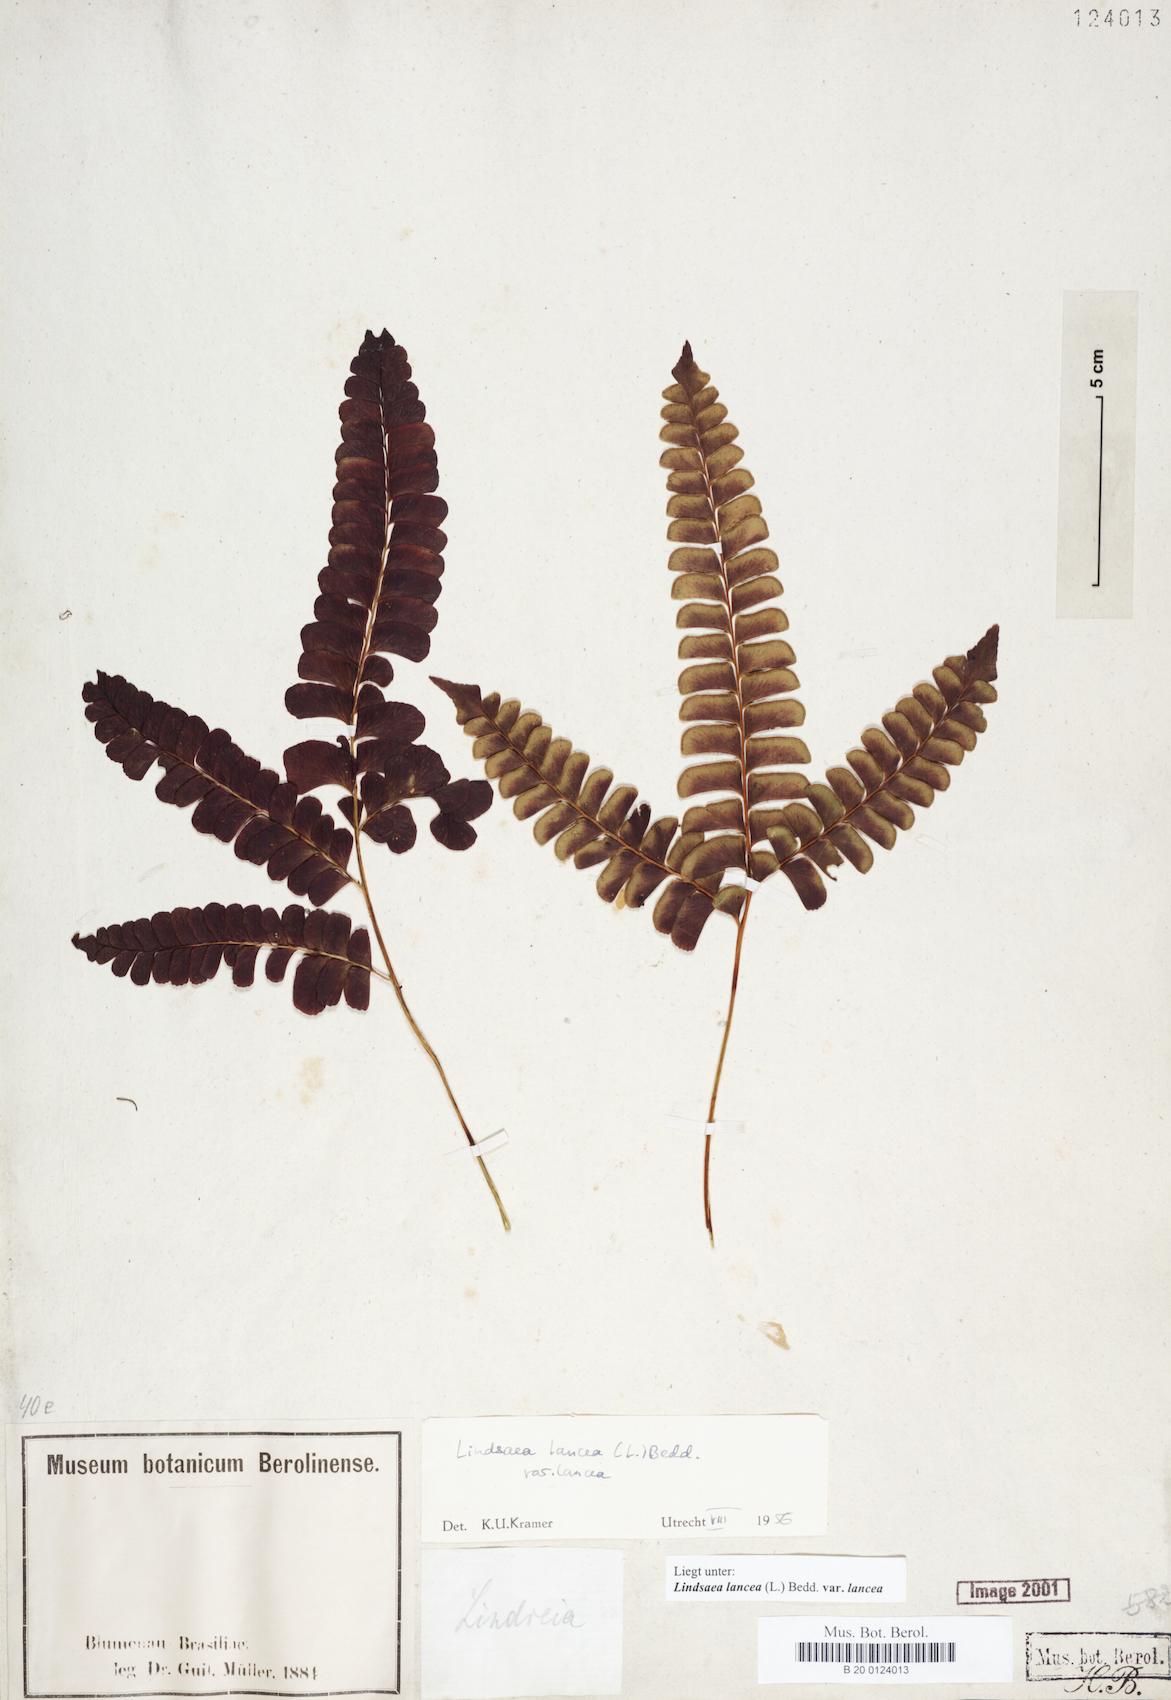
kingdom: Plantae
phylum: Tracheophyta
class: Polypodiopsida
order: Polypodiales
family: Lindsaeaceae
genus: Lindsaea
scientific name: Lindsaea lancea
